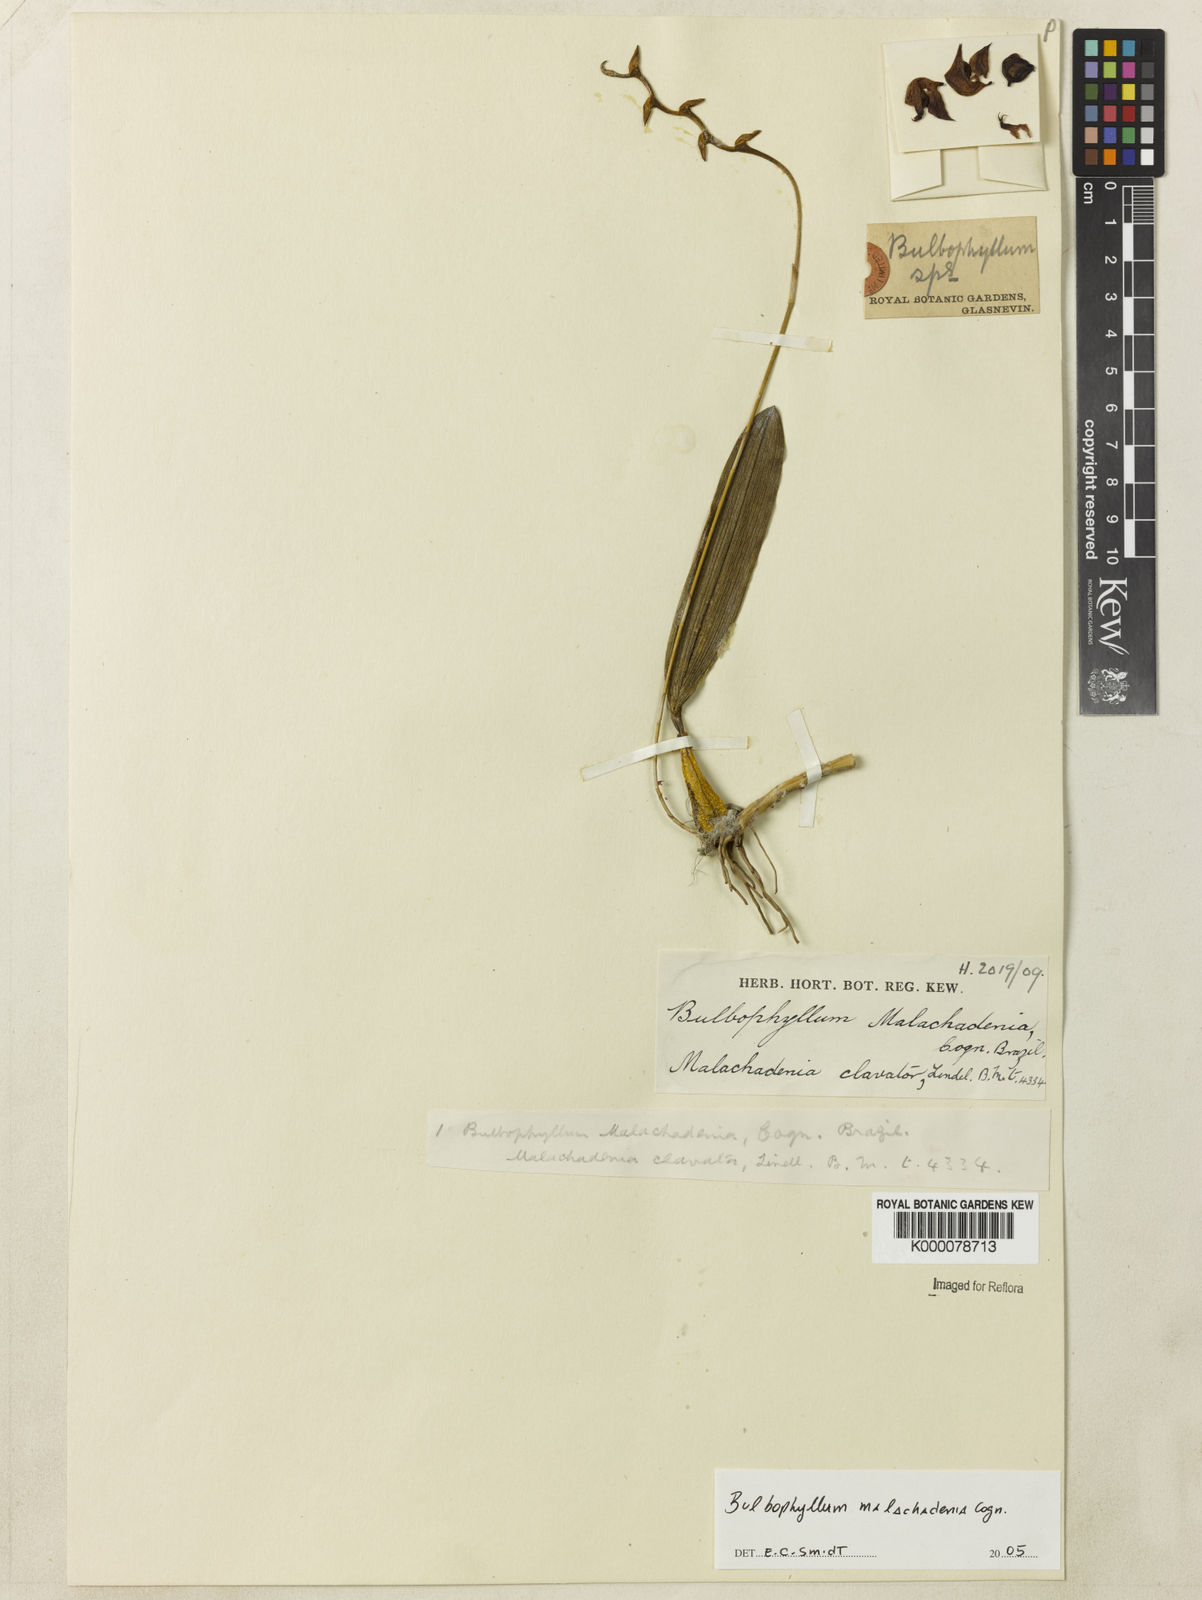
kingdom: Plantae
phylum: Tracheophyta
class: Liliopsida
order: Asparagales
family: Orchidaceae
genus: Bulbophyllum
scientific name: Bulbophyllum malachadenia
